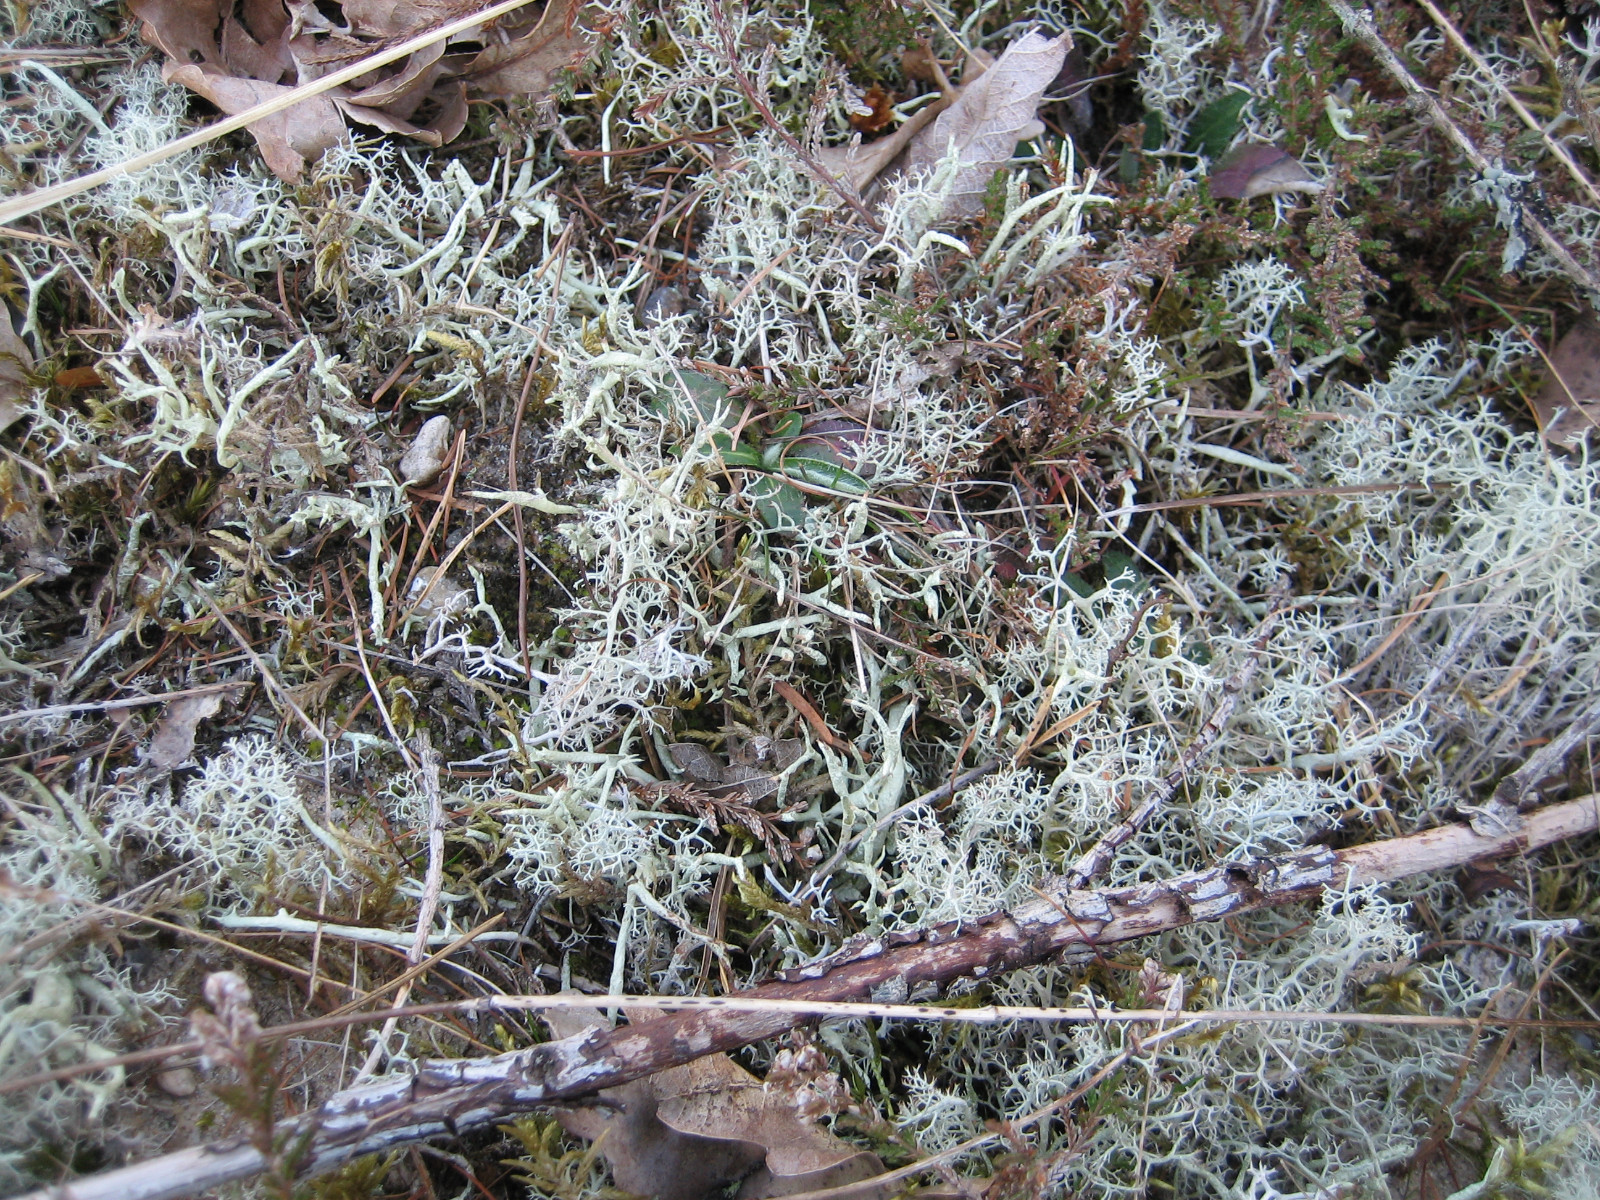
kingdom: Fungi
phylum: Ascomycota
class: Lecanoromycetes
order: Lecanorales
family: Cladoniaceae
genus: Cladonia
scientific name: Cladonia uncialis
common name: pigget bægerlav
